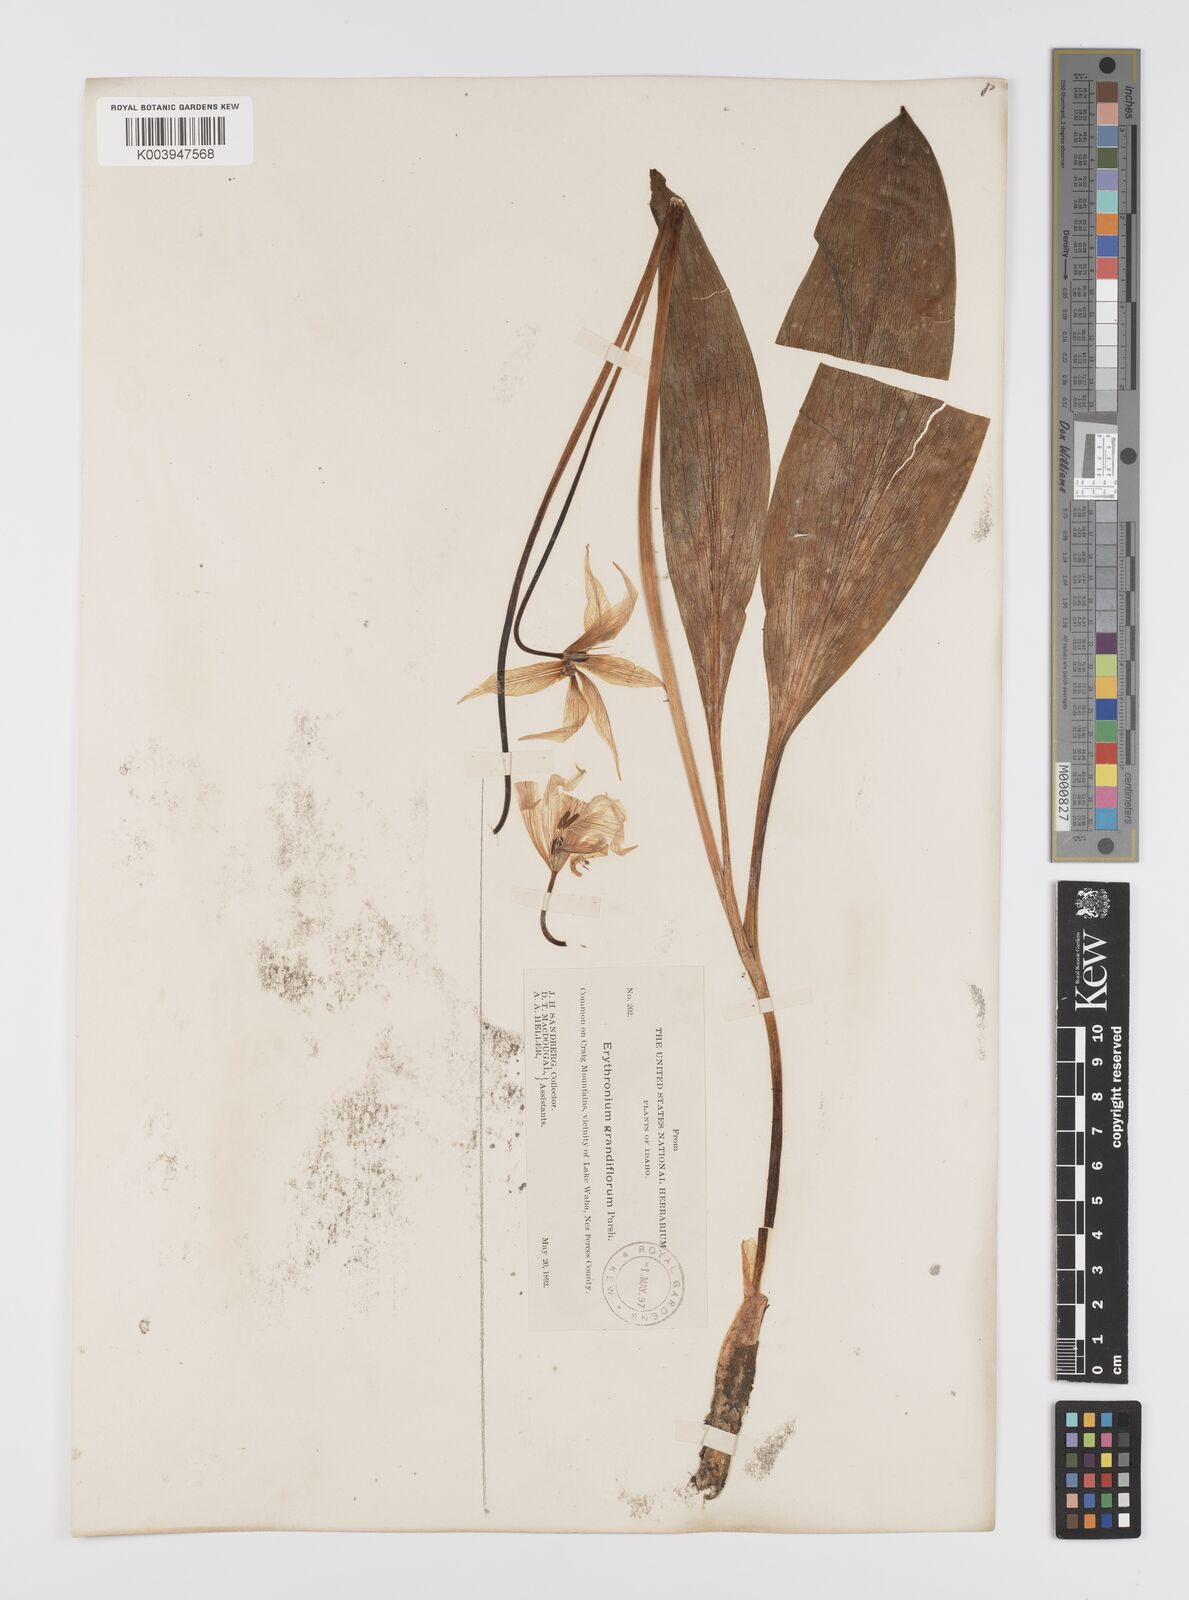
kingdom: Plantae
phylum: Tracheophyta
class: Liliopsida
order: Liliales
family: Liliaceae
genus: Erythronium
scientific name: Erythronium grandiflorum
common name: Avalanche-lily
